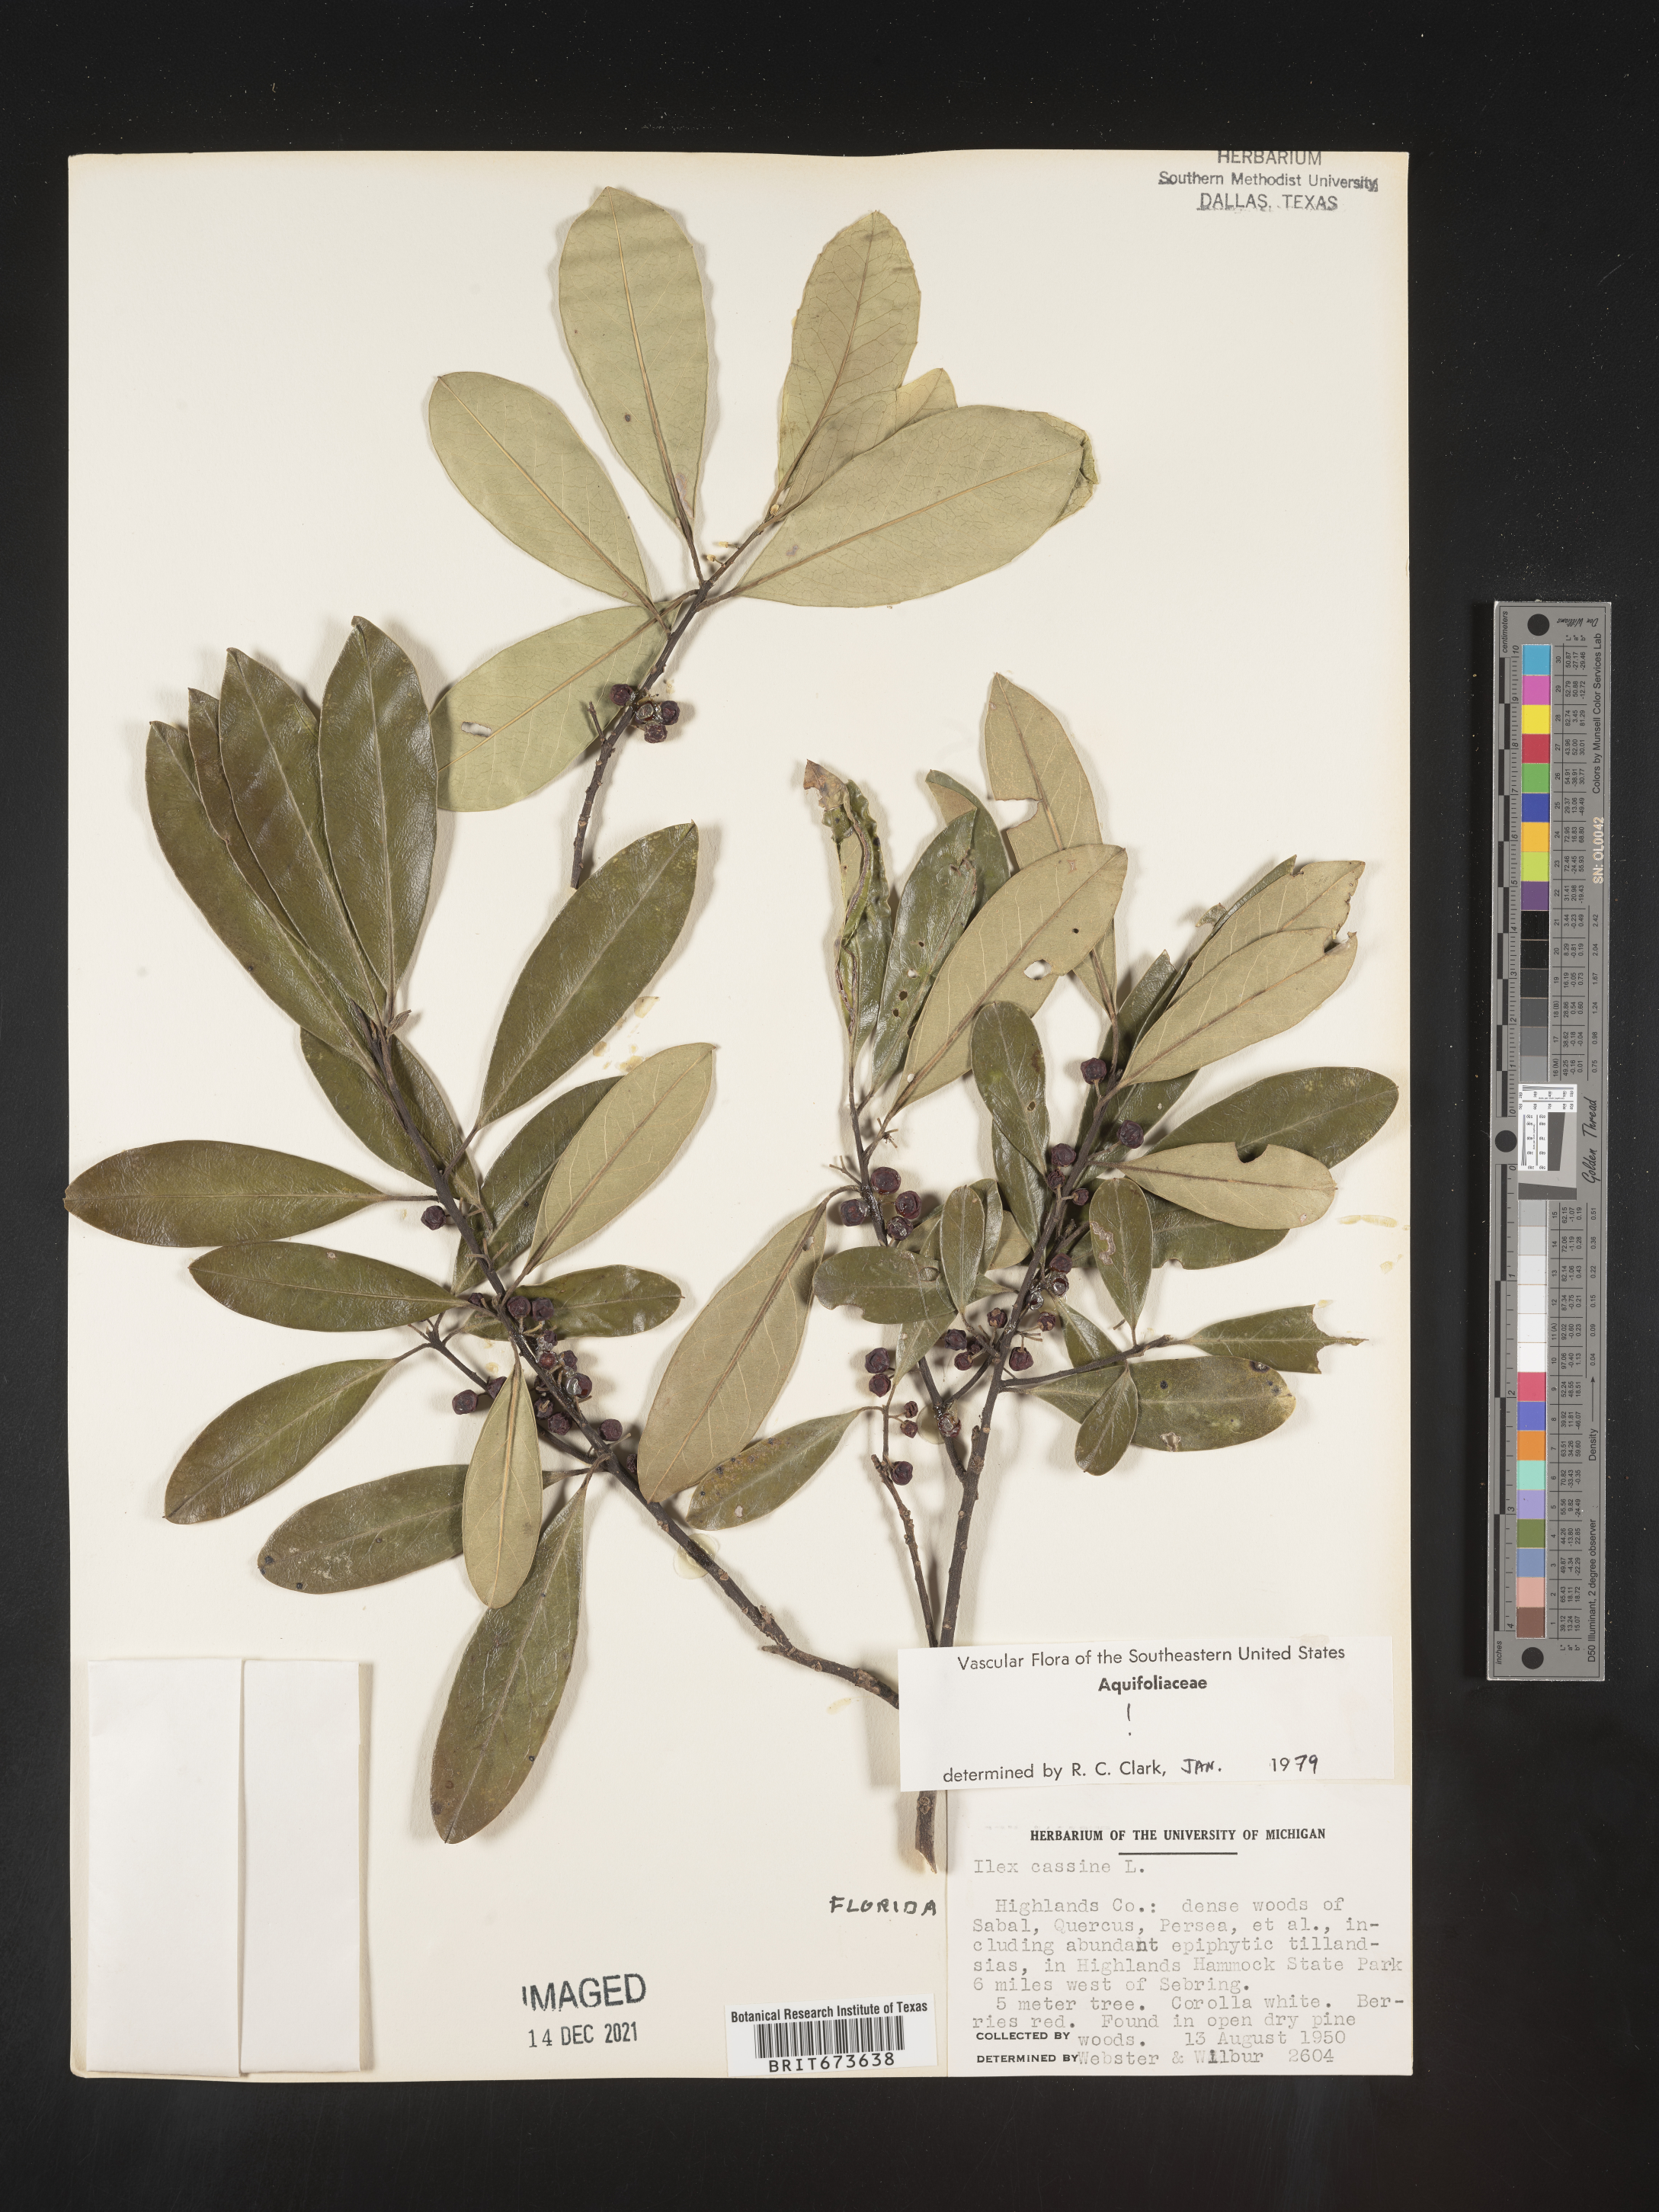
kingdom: Plantae
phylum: Tracheophyta
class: Magnoliopsida
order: Aquifoliales
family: Aquifoliaceae
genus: Ilex
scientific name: Ilex cassine
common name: Dahoon
